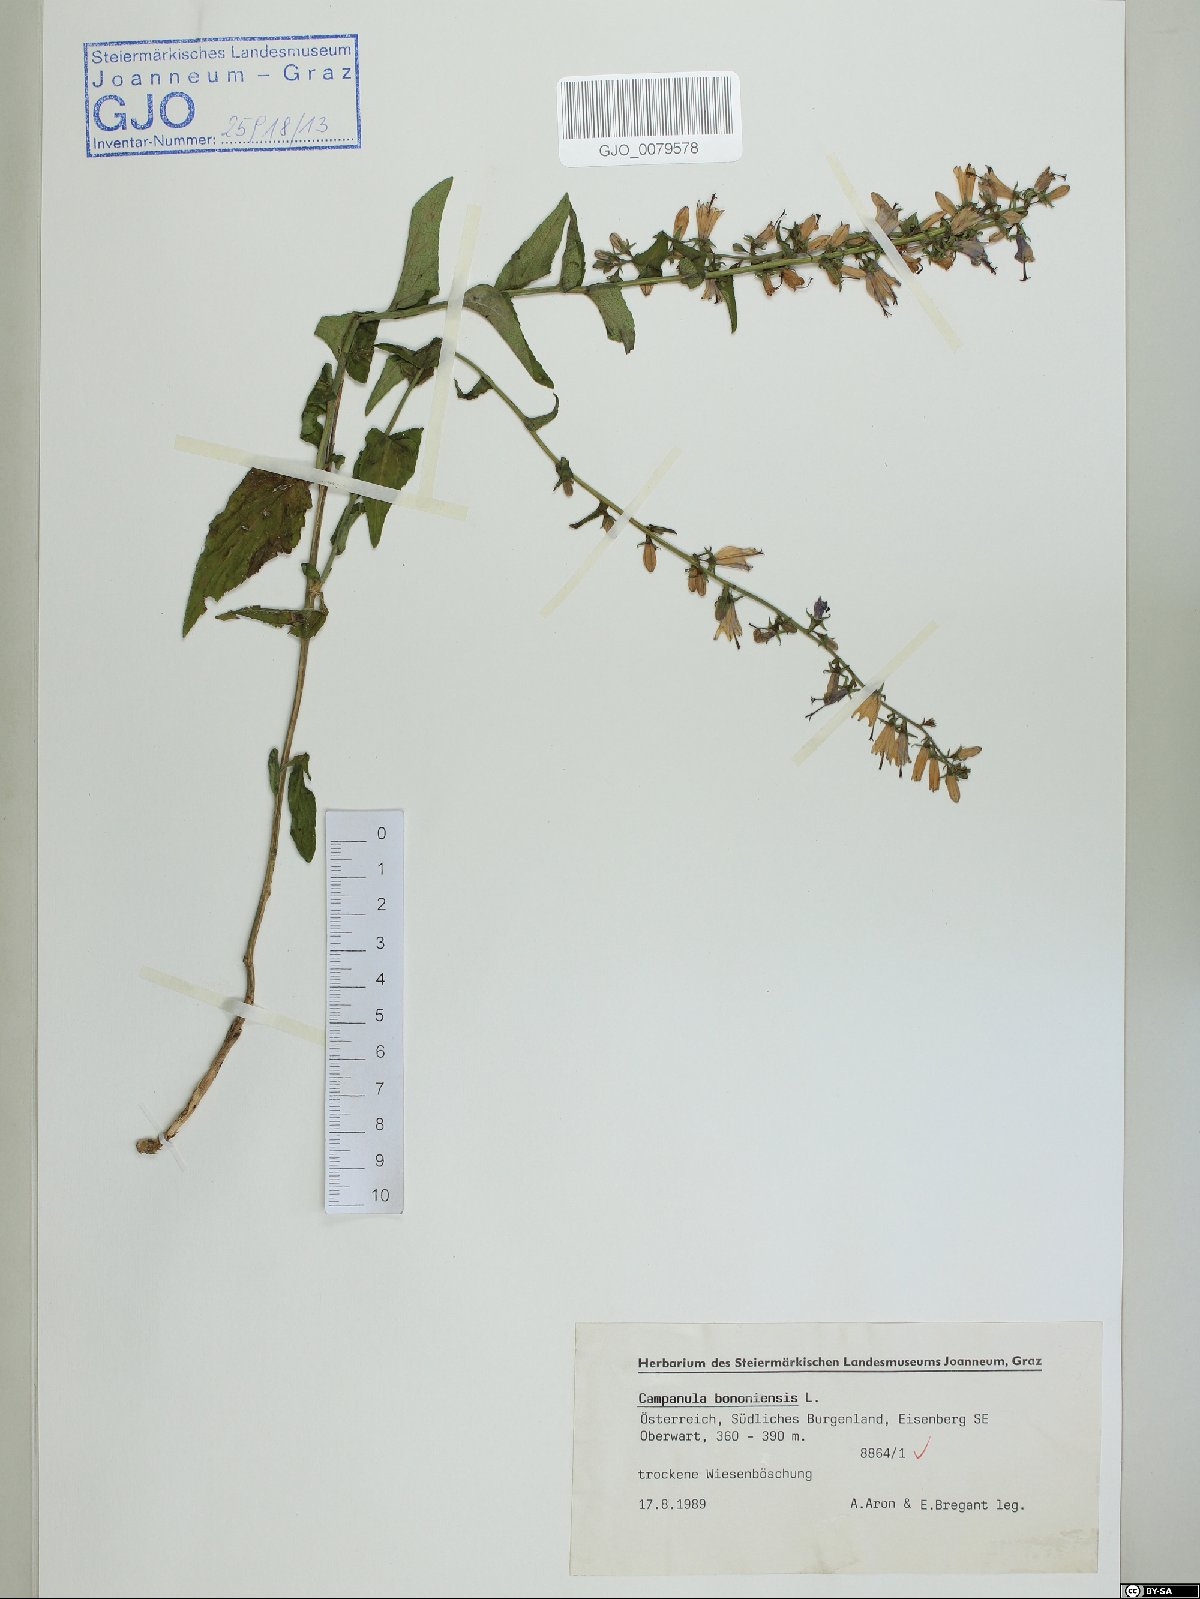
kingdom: Plantae
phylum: Tracheophyta
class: Magnoliopsida
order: Asterales
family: Campanulaceae
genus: Campanula
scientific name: Campanula bononiensis
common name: Pale bellflower
